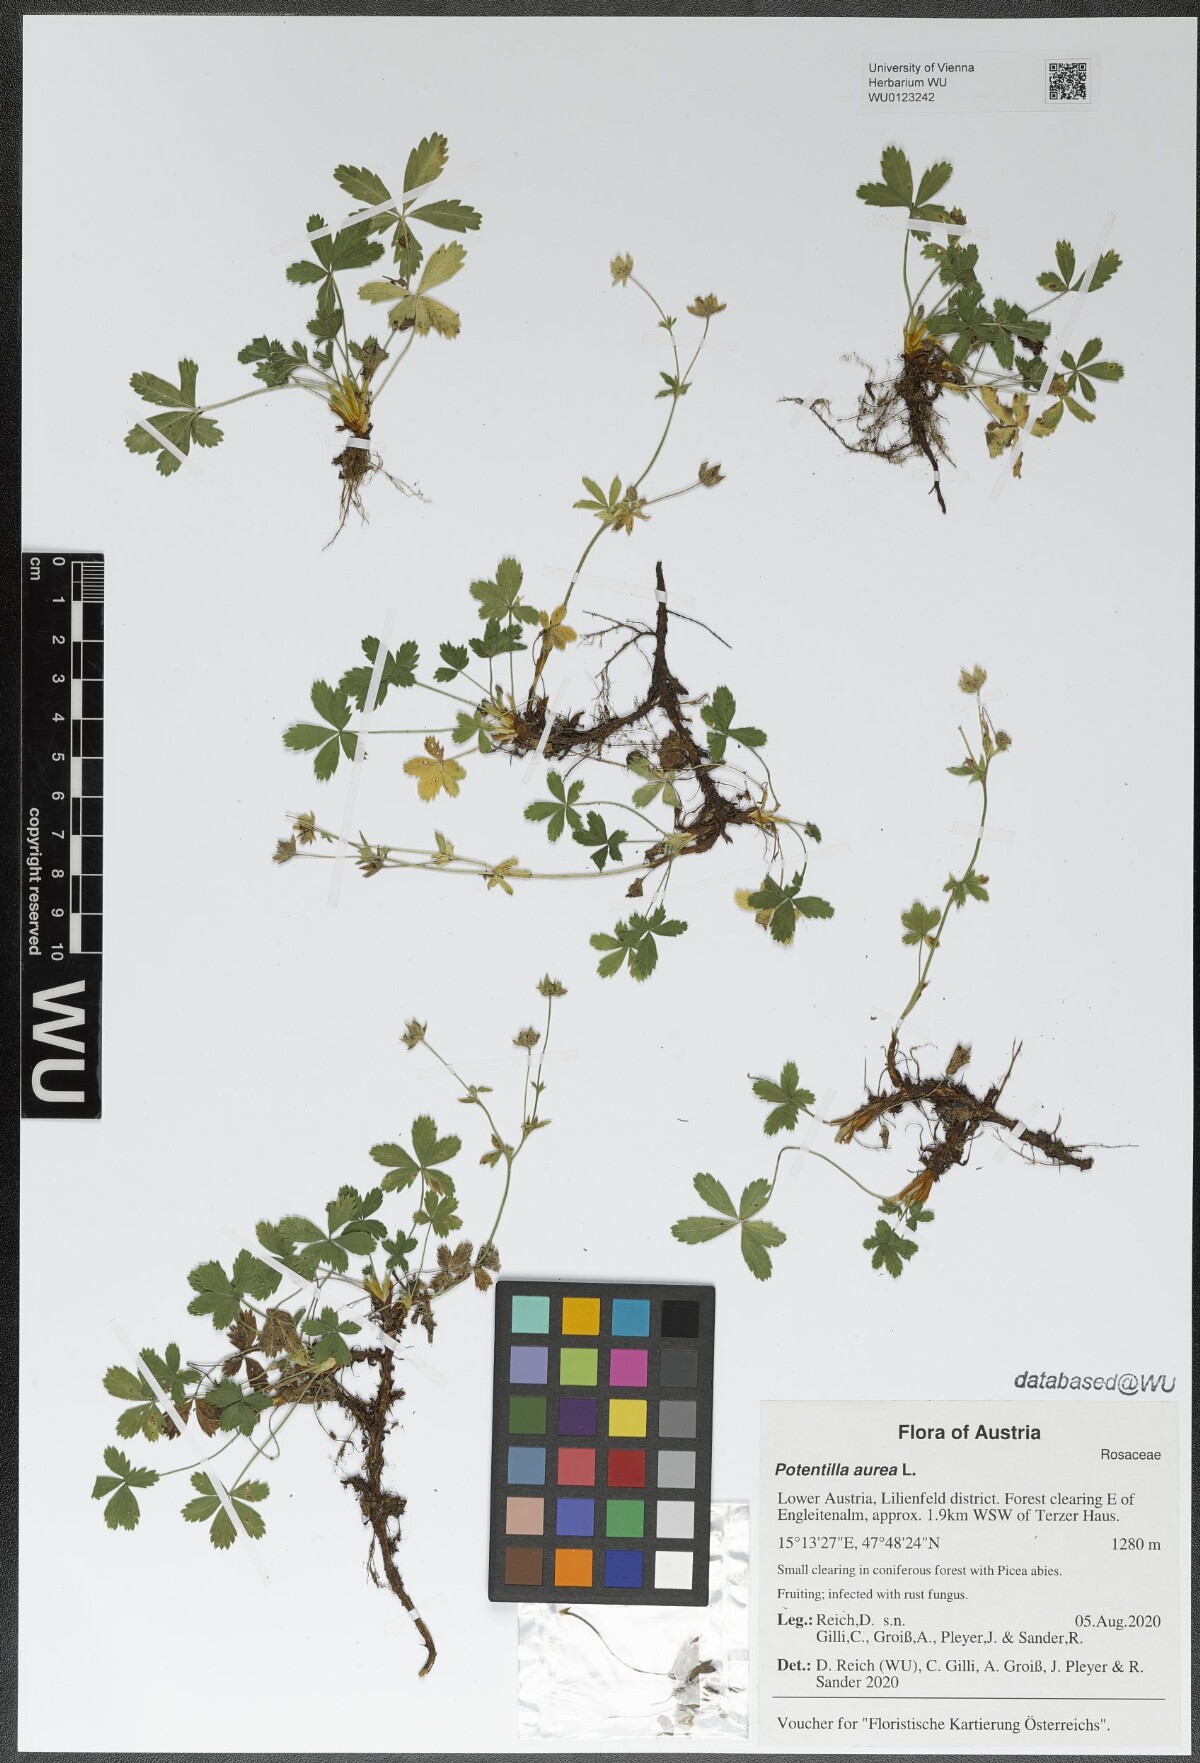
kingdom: Plantae
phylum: Tracheophyta
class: Magnoliopsida
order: Rosales
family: Rosaceae
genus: Potentilla
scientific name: Potentilla aurea
